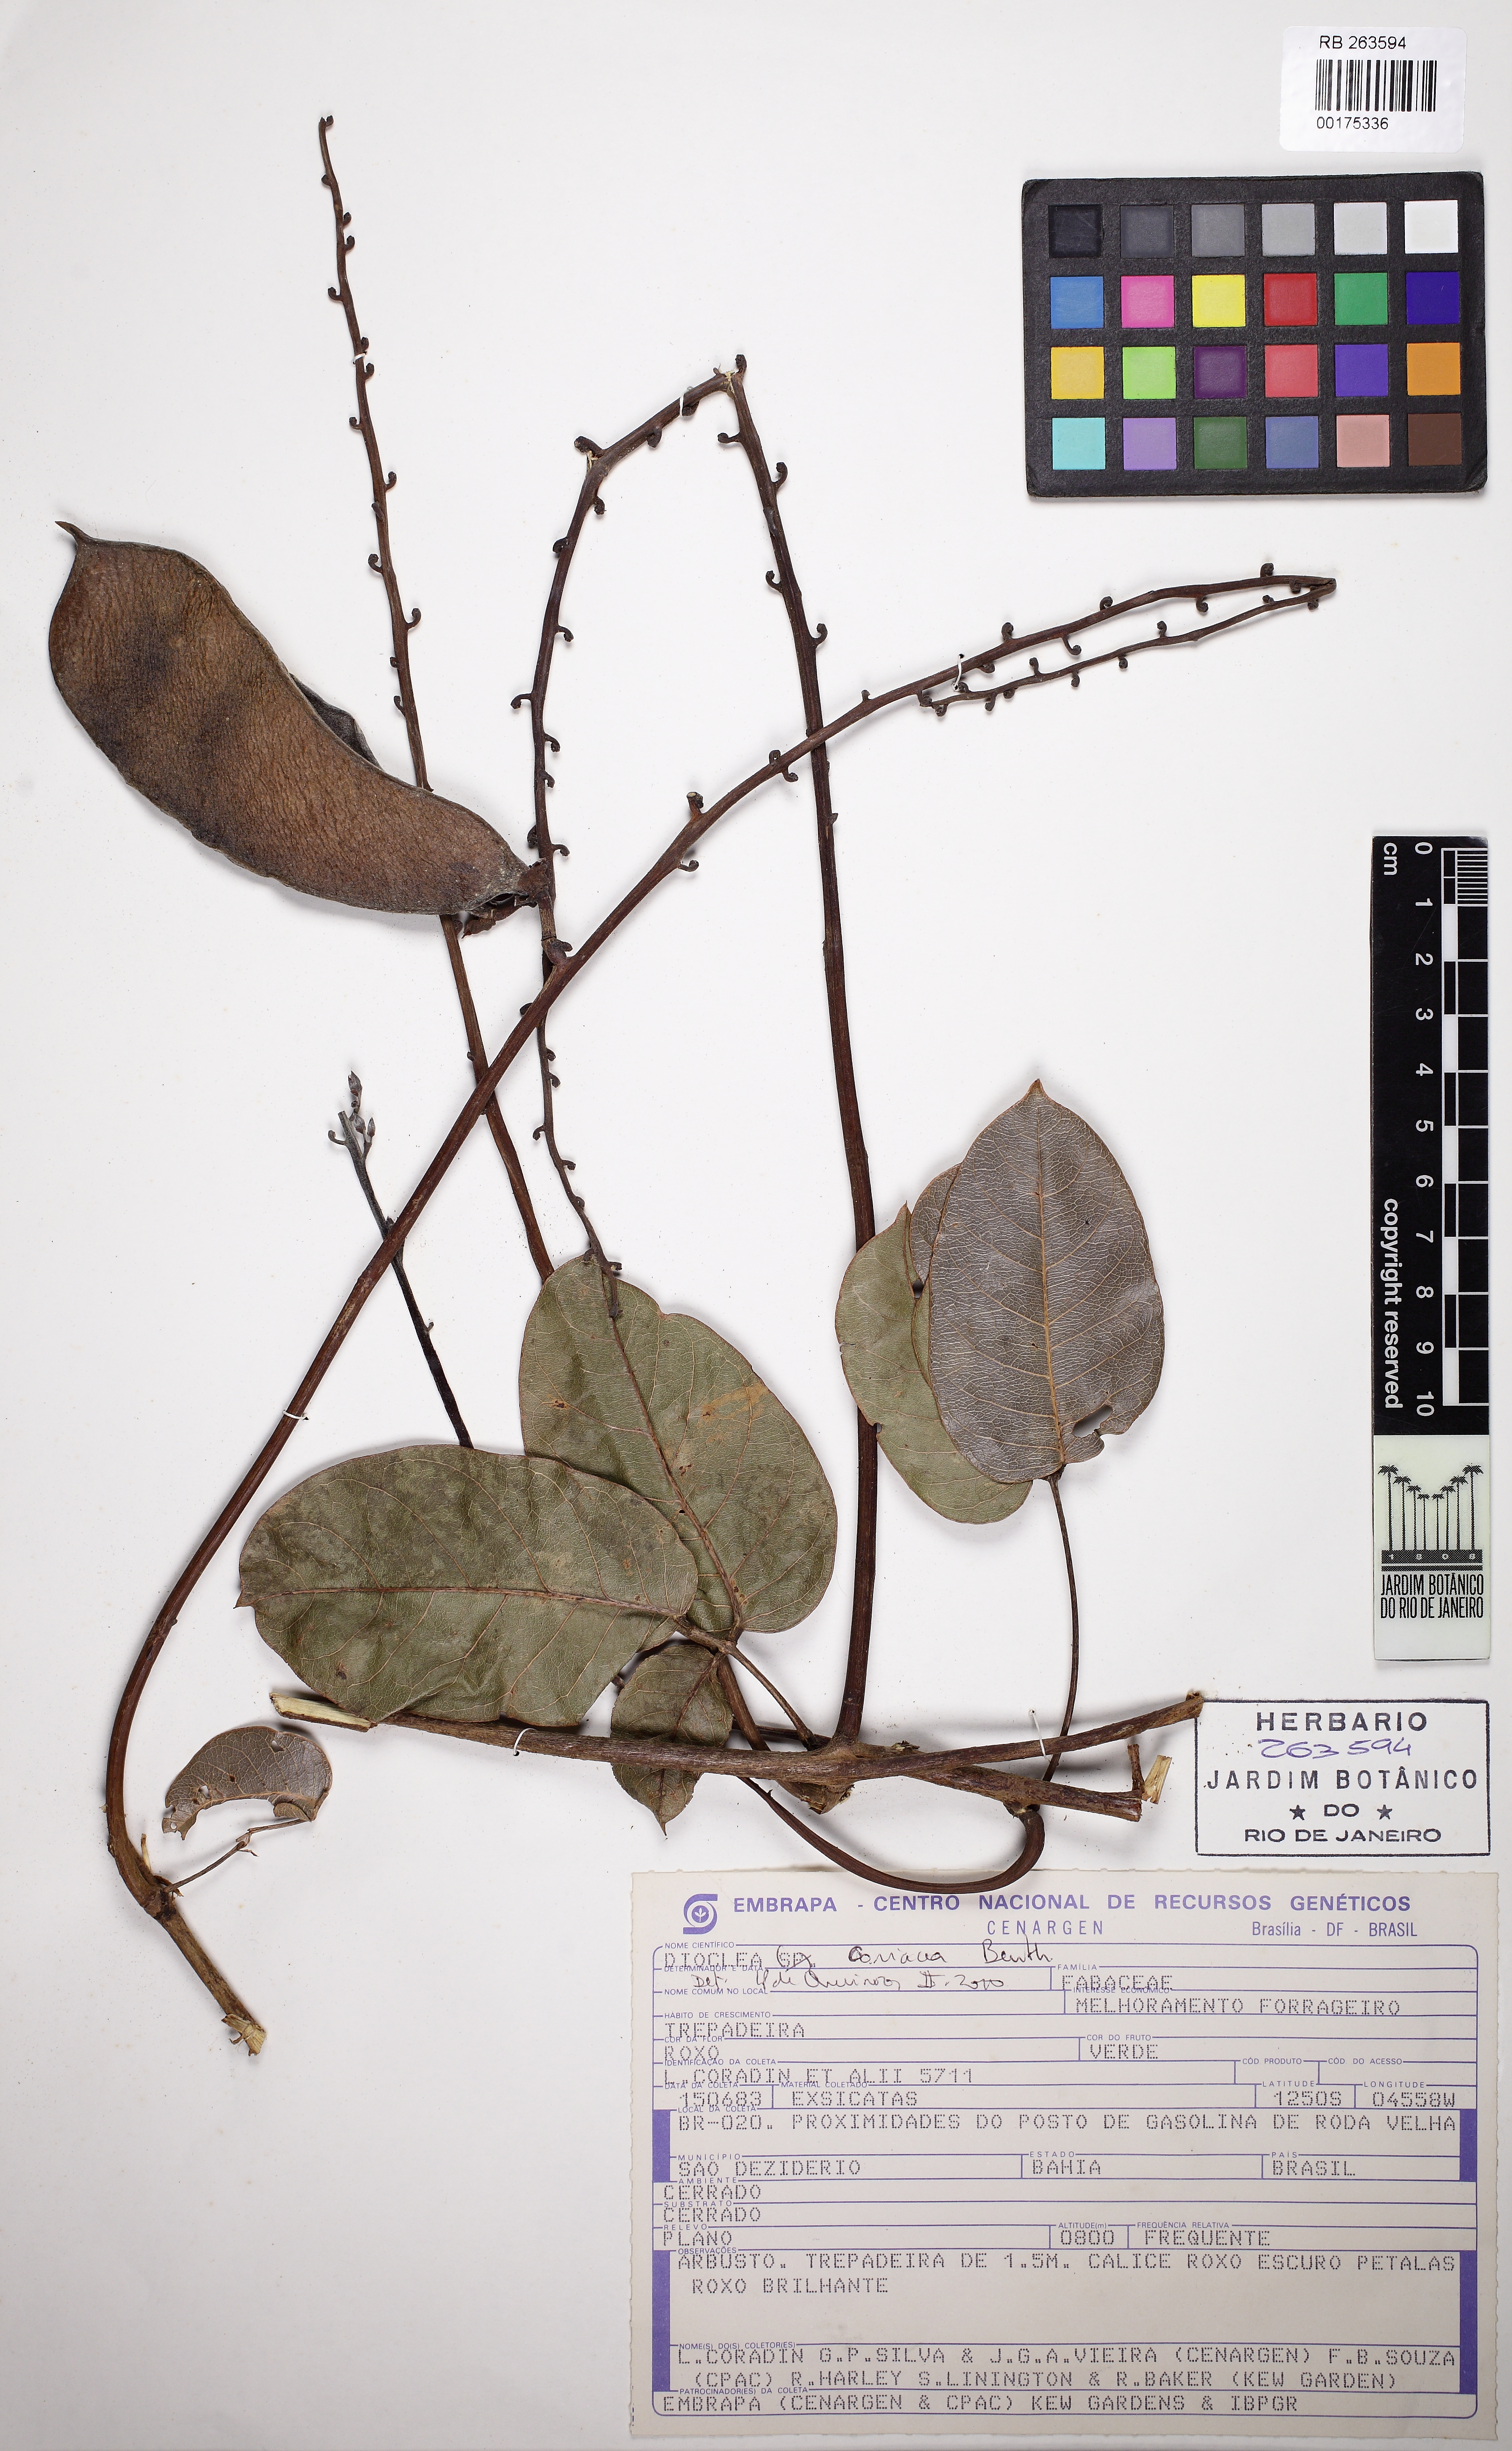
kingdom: Plantae
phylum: Tracheophyta
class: Magnoliopsida
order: Fabales
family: Fabaceae
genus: Macropsychanthus
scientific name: Macropsychanthus coriaceus
